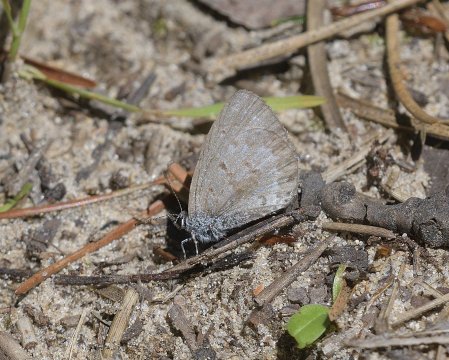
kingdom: Animalia
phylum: Arthropoda
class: Insecta
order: Lepidoptera
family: Lycaenidae
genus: Celastrina
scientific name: Celastrina lucia
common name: Northern Spring Azure
